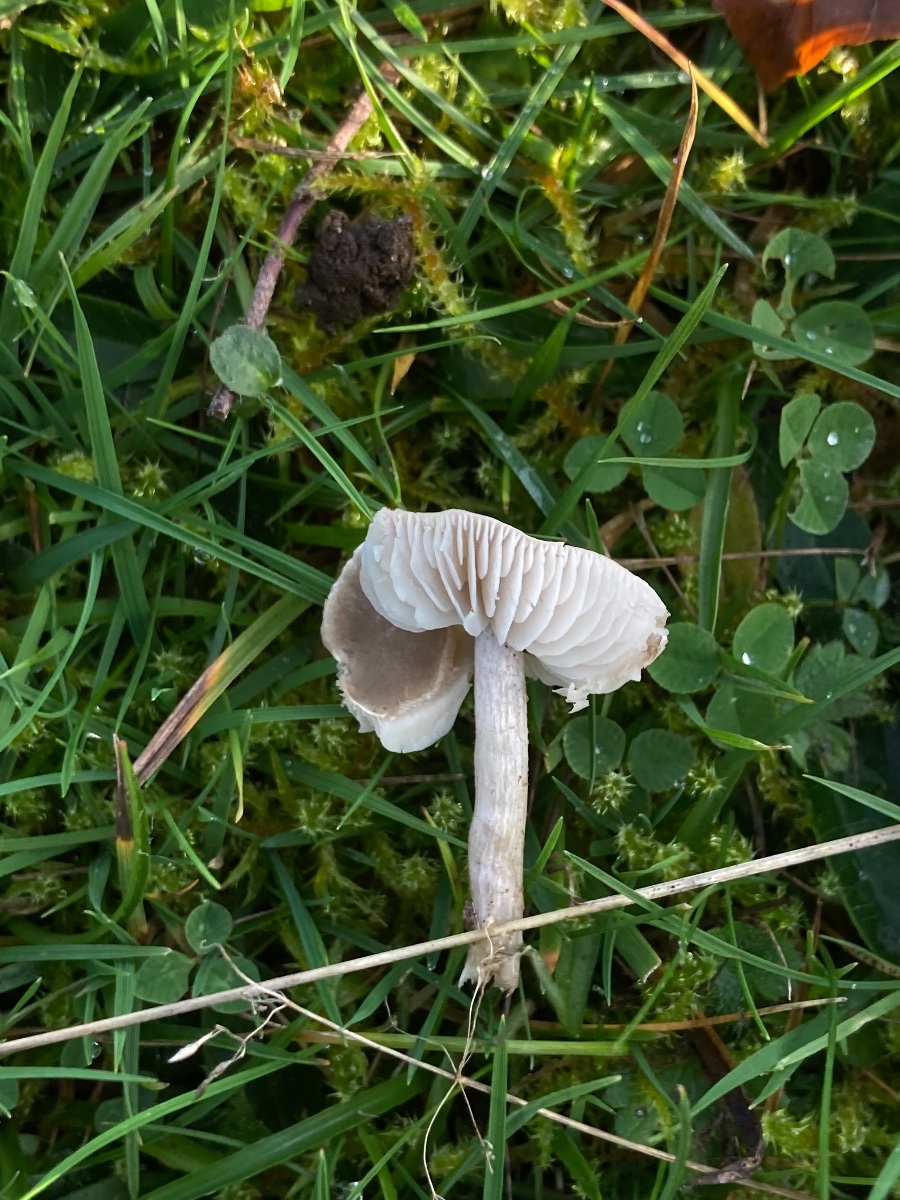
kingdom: Fungi
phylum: Basidiomycota
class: Agaricomycetes
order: Agaricales
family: Tricholomataceae
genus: Dermoloma
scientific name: Dermoloma cuneifolium
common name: eng-nonnehat
